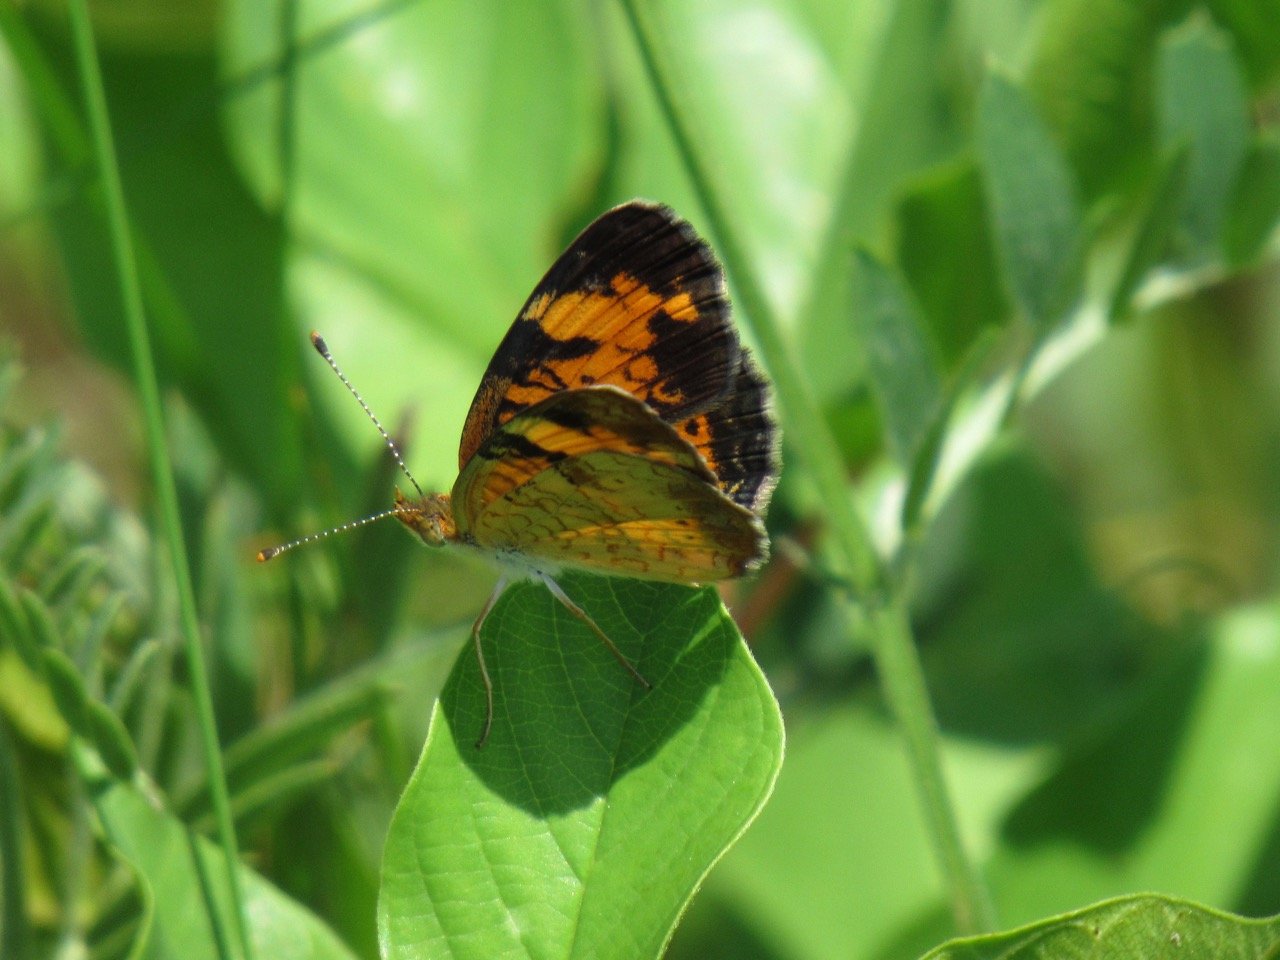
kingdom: Animalia
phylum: Arthropoda
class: Insecta
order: Lepidoptera
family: Nymphalidae
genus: Phyciodes
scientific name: Phyciodes
